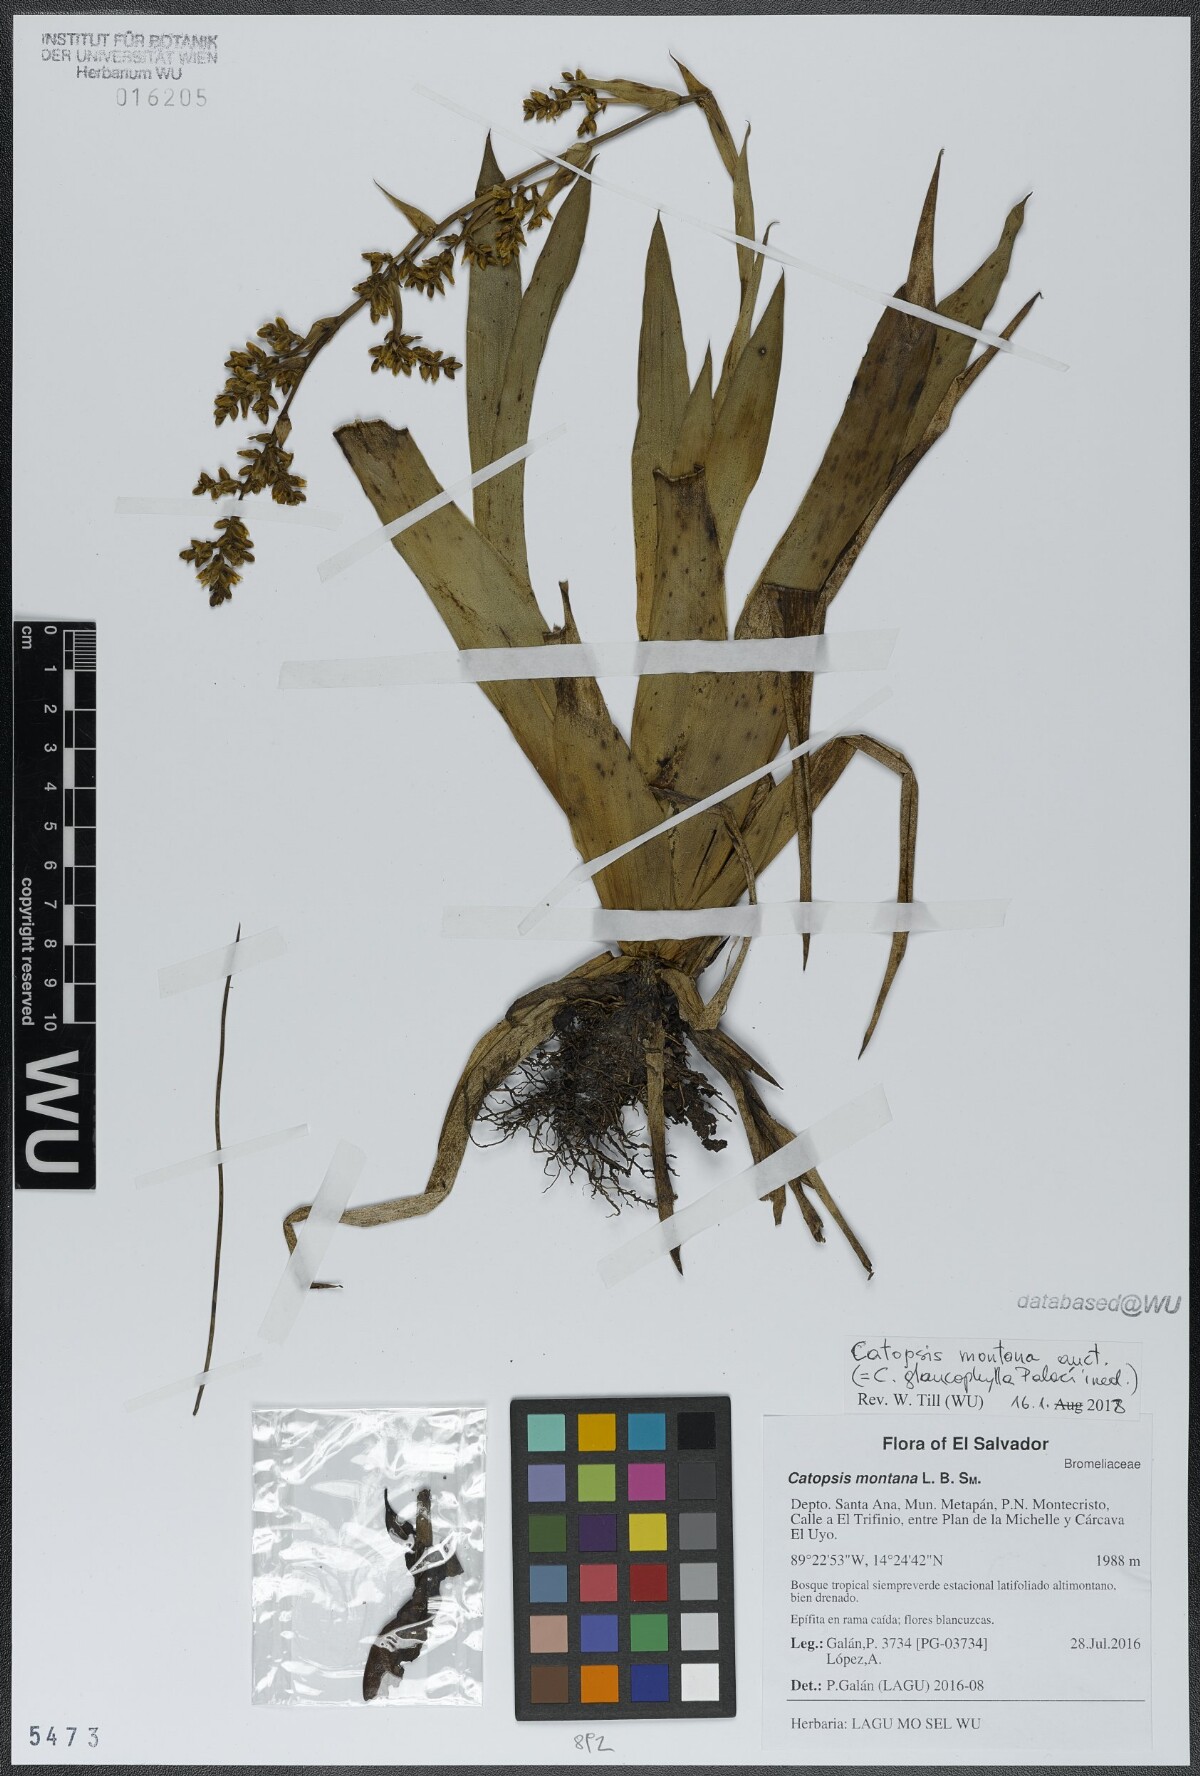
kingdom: Plantae
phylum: Tracheophyta
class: Liliopsida
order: Poales
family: Bromeliaceae
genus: Catopsis
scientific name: Catopsis montana
